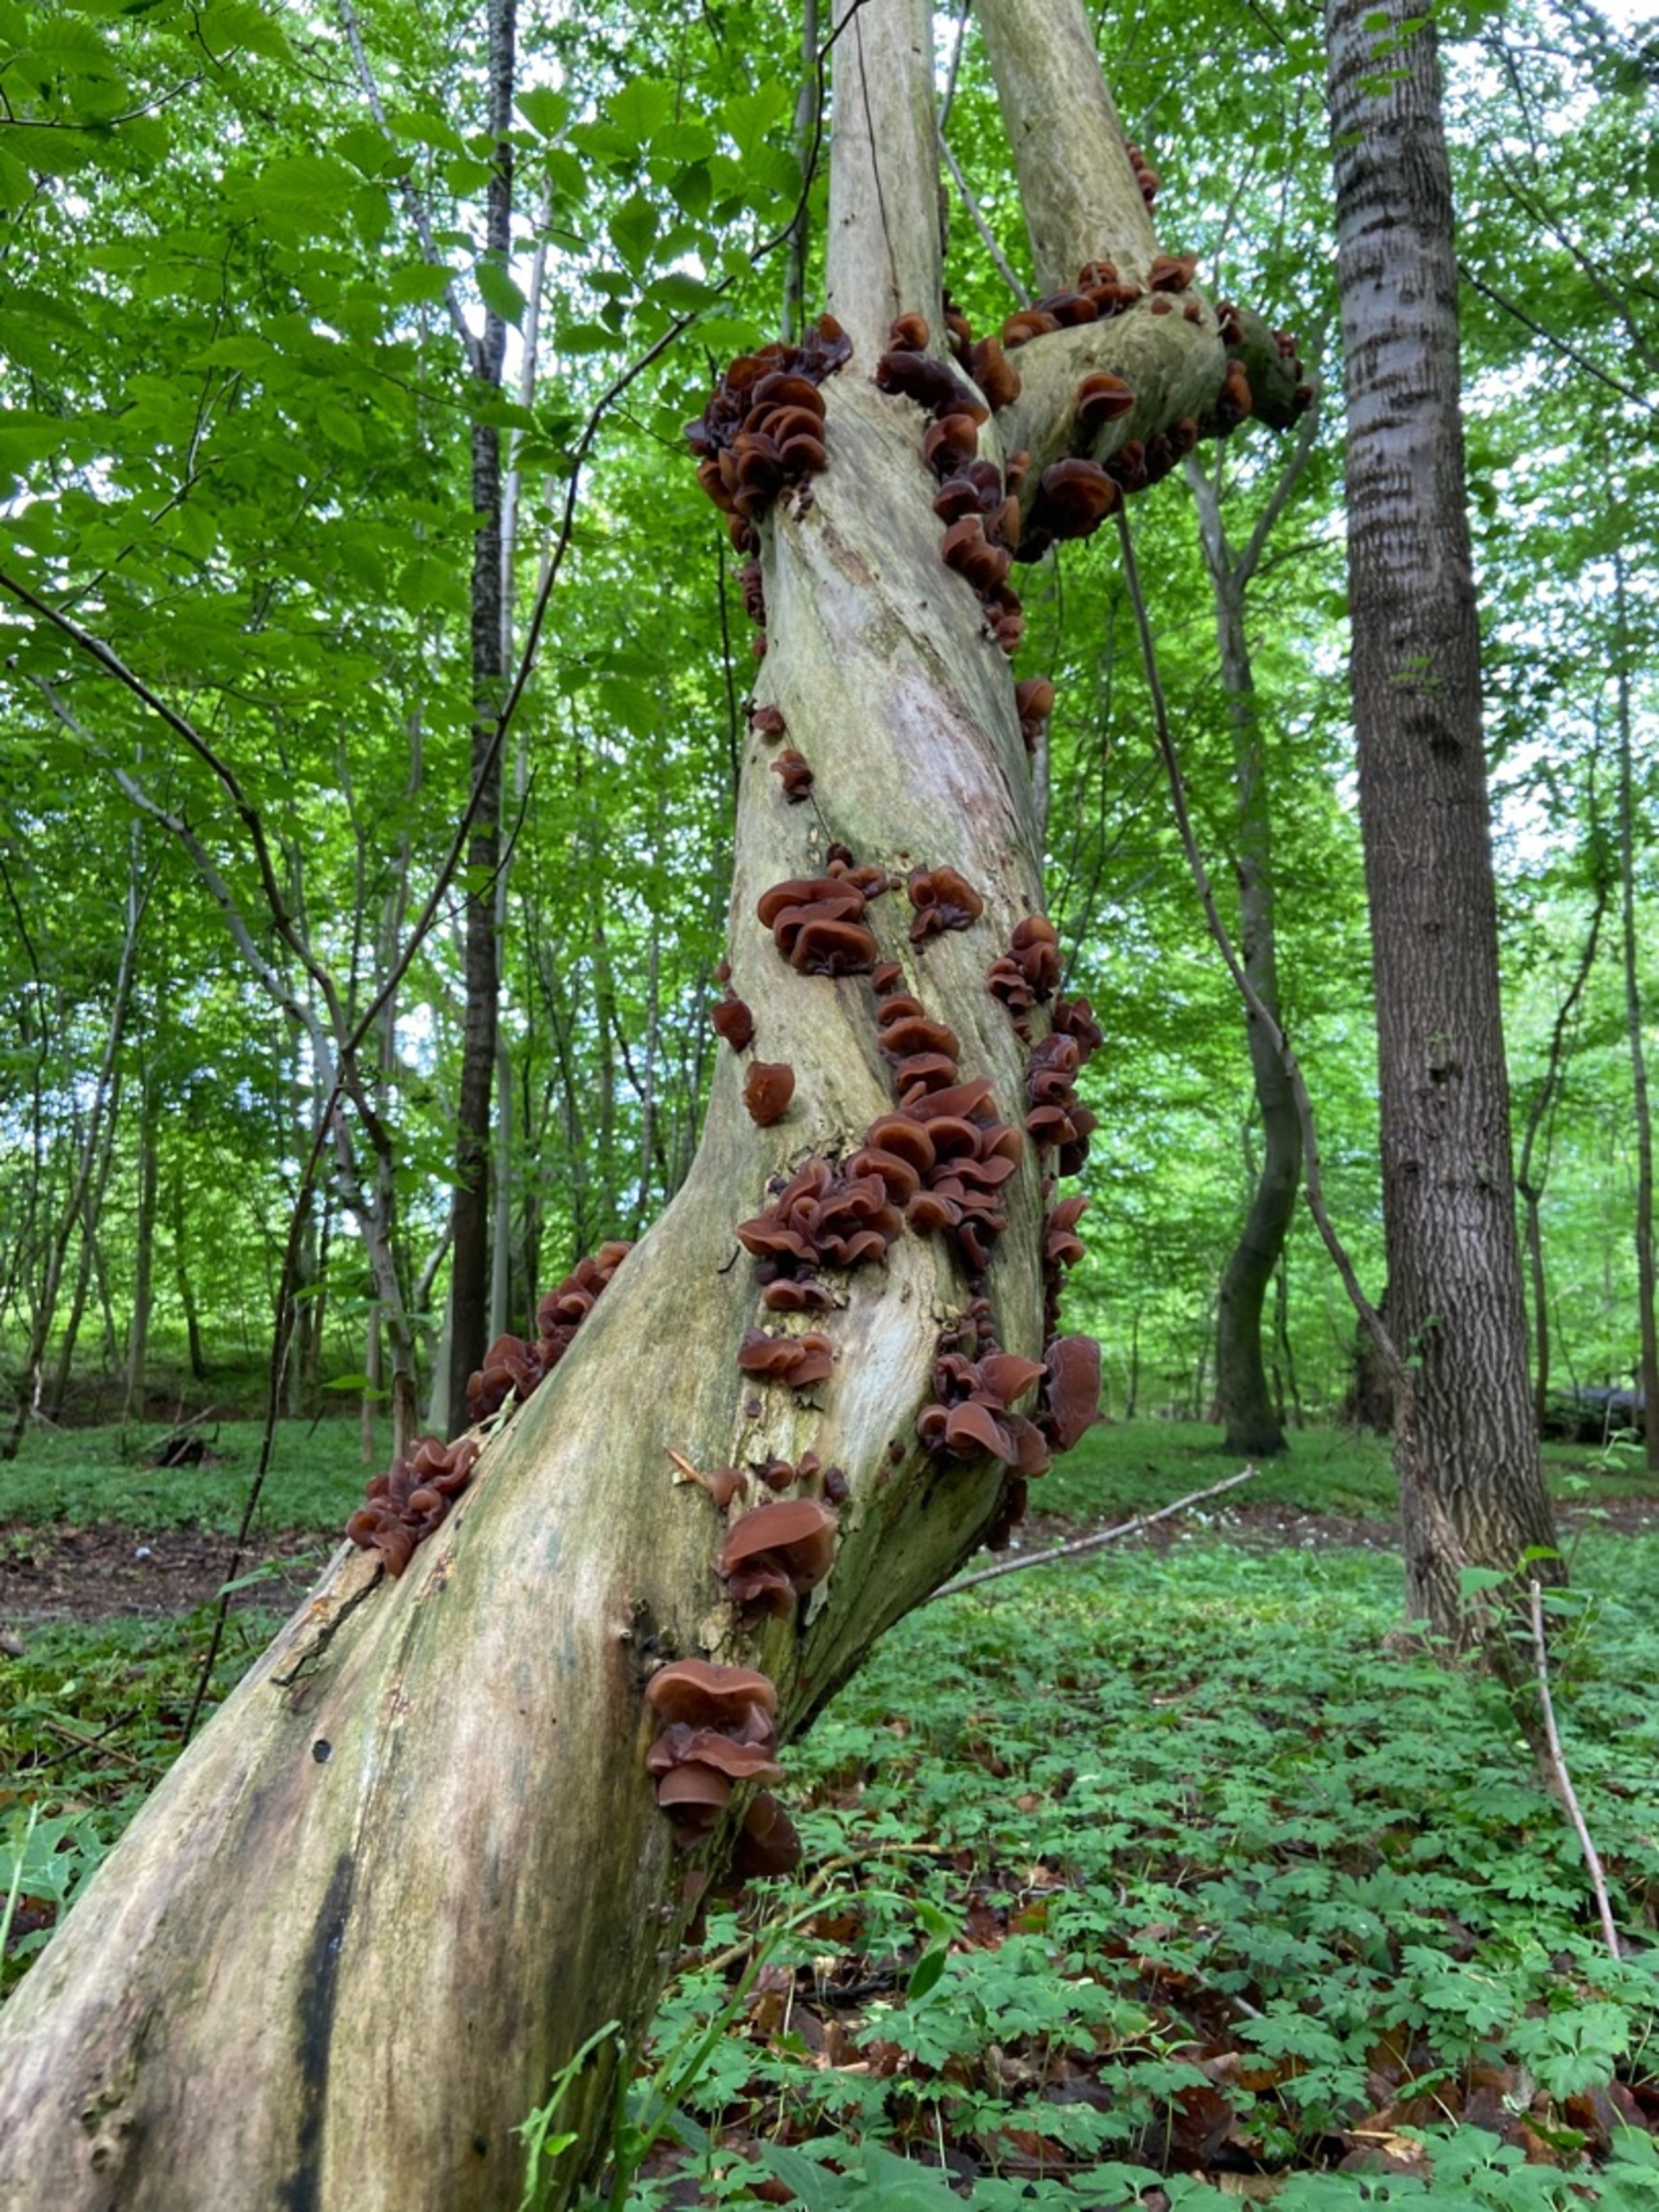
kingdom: Fungi
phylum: Basidiomycota
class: Agaricomycetes
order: Auriculariales
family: Auriculariaceae
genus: Auricularia
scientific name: Auricularia
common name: Judasøre
